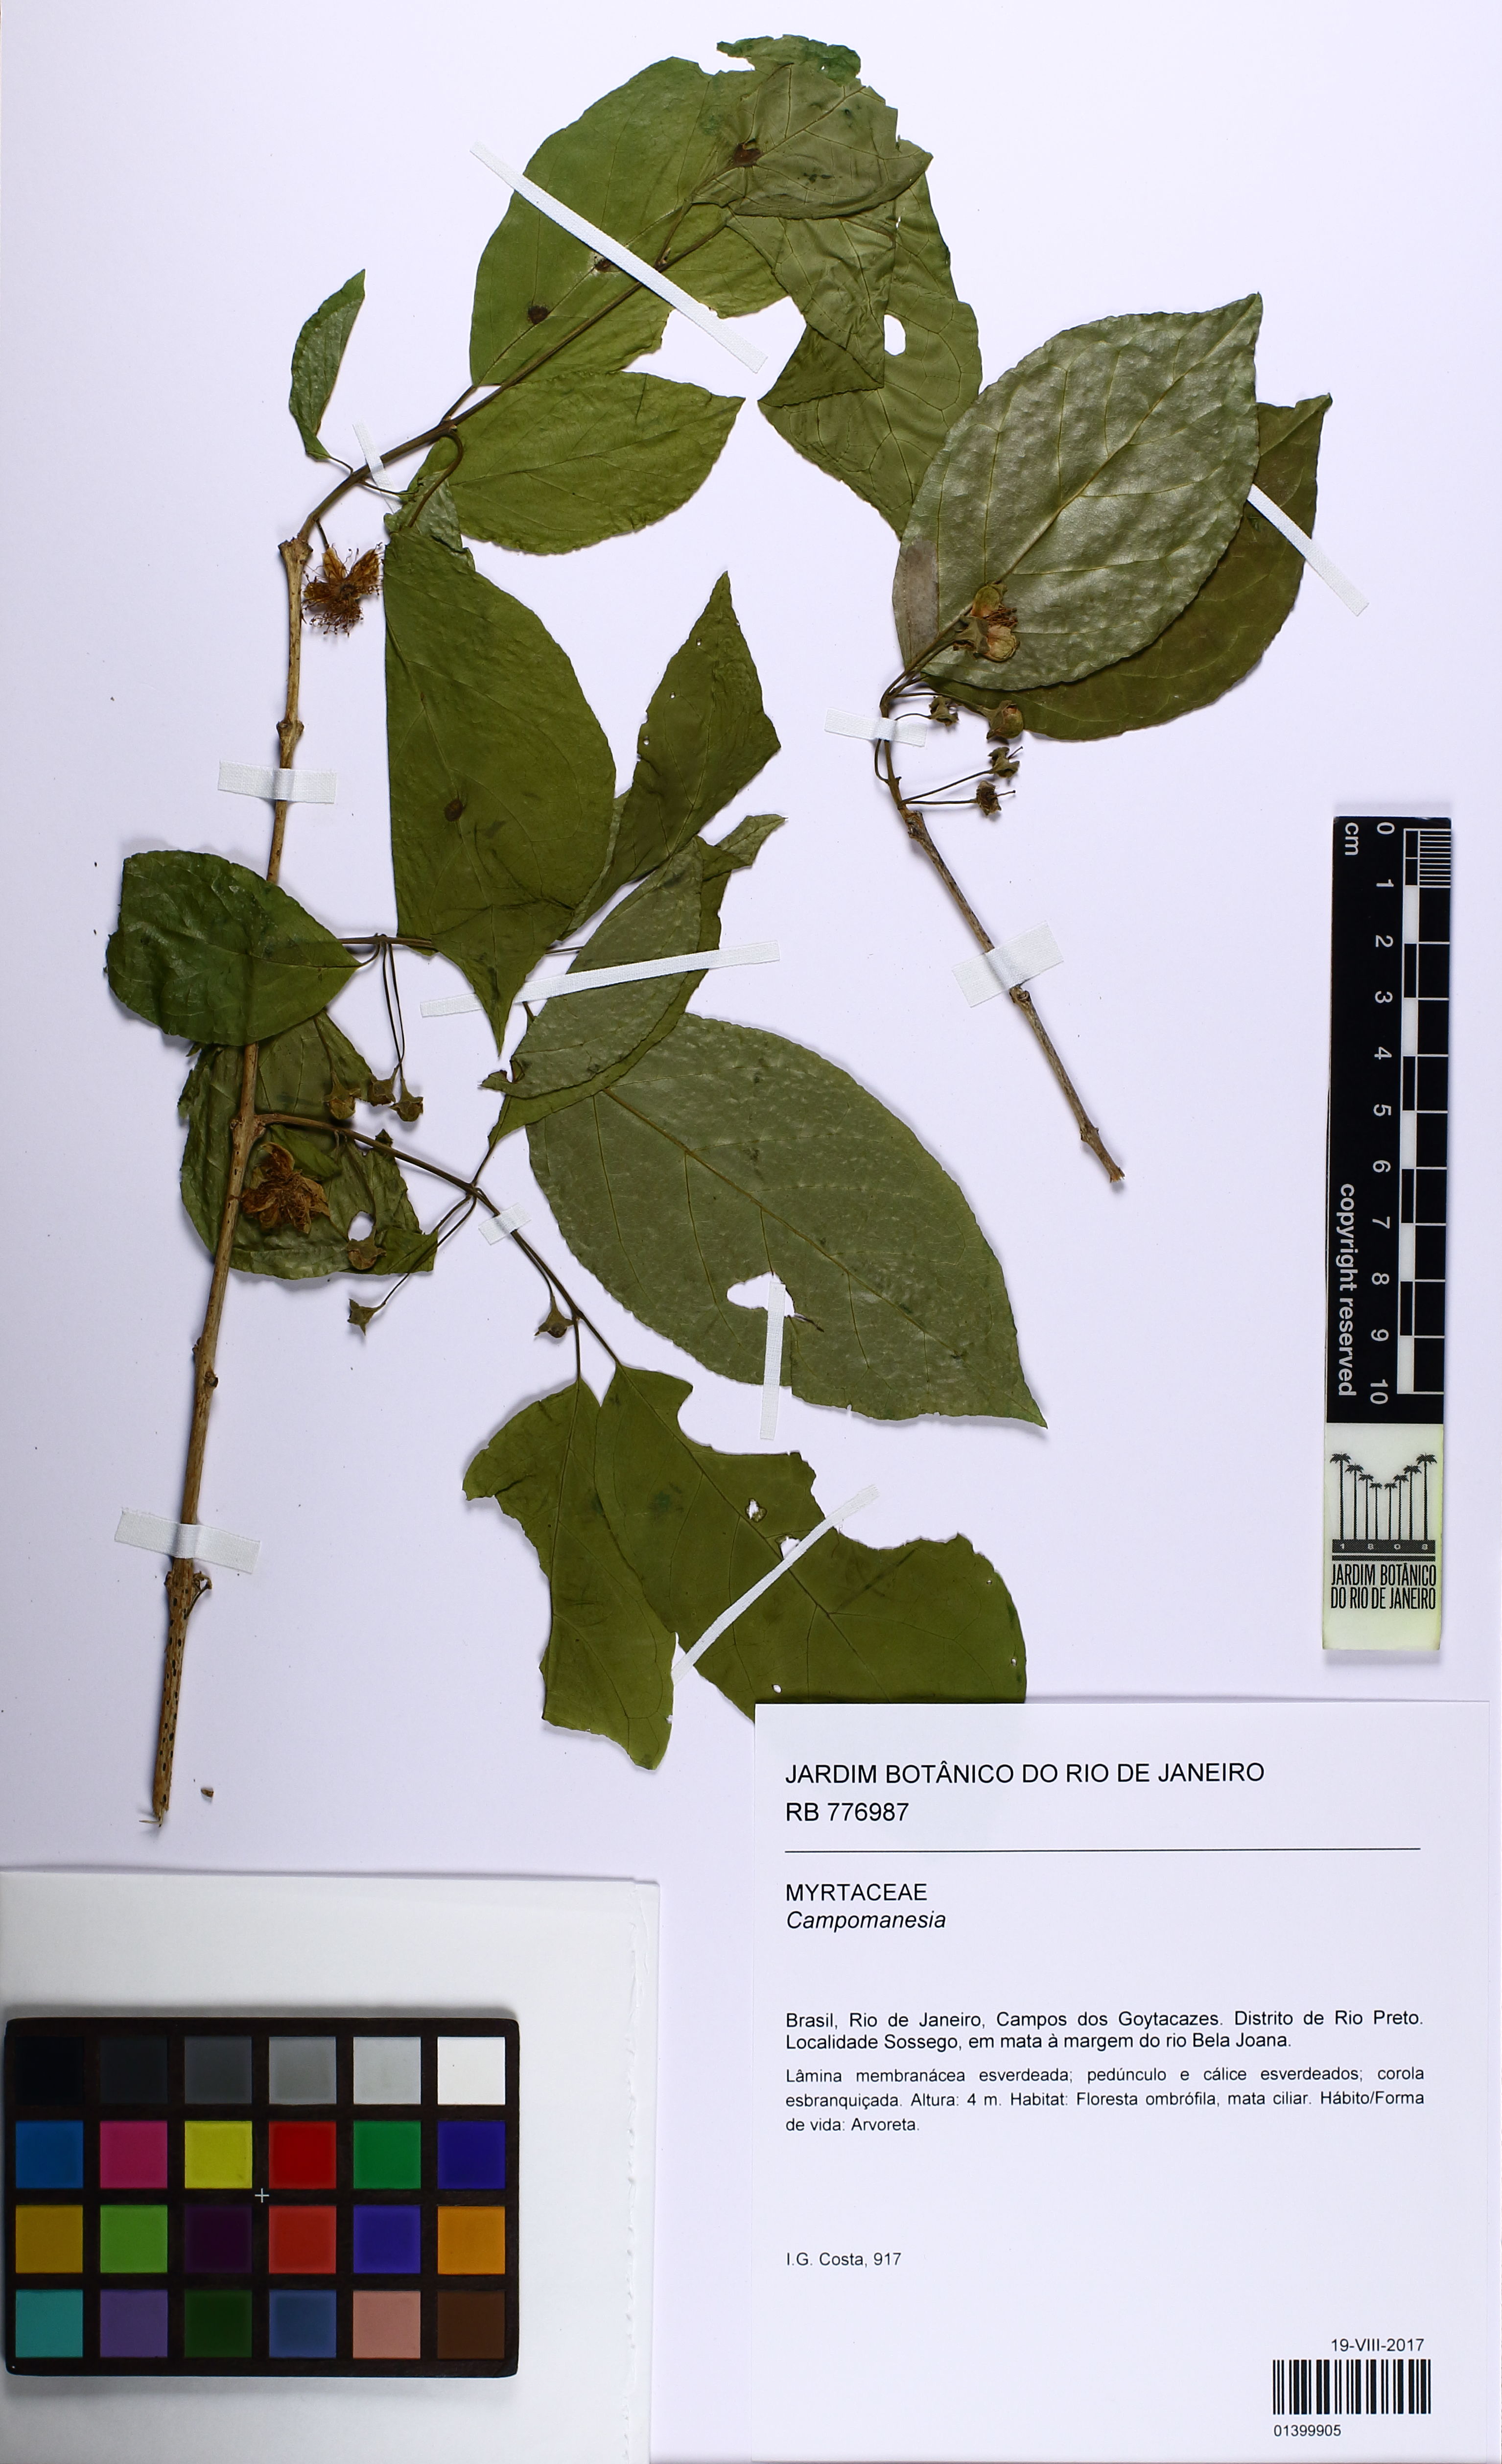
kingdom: Plantae
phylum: Tracheophyta
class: Magnoliopsida
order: Myrtales
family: Myrtaceae
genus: Campomanesia
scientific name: Campomanesia guaviroba
